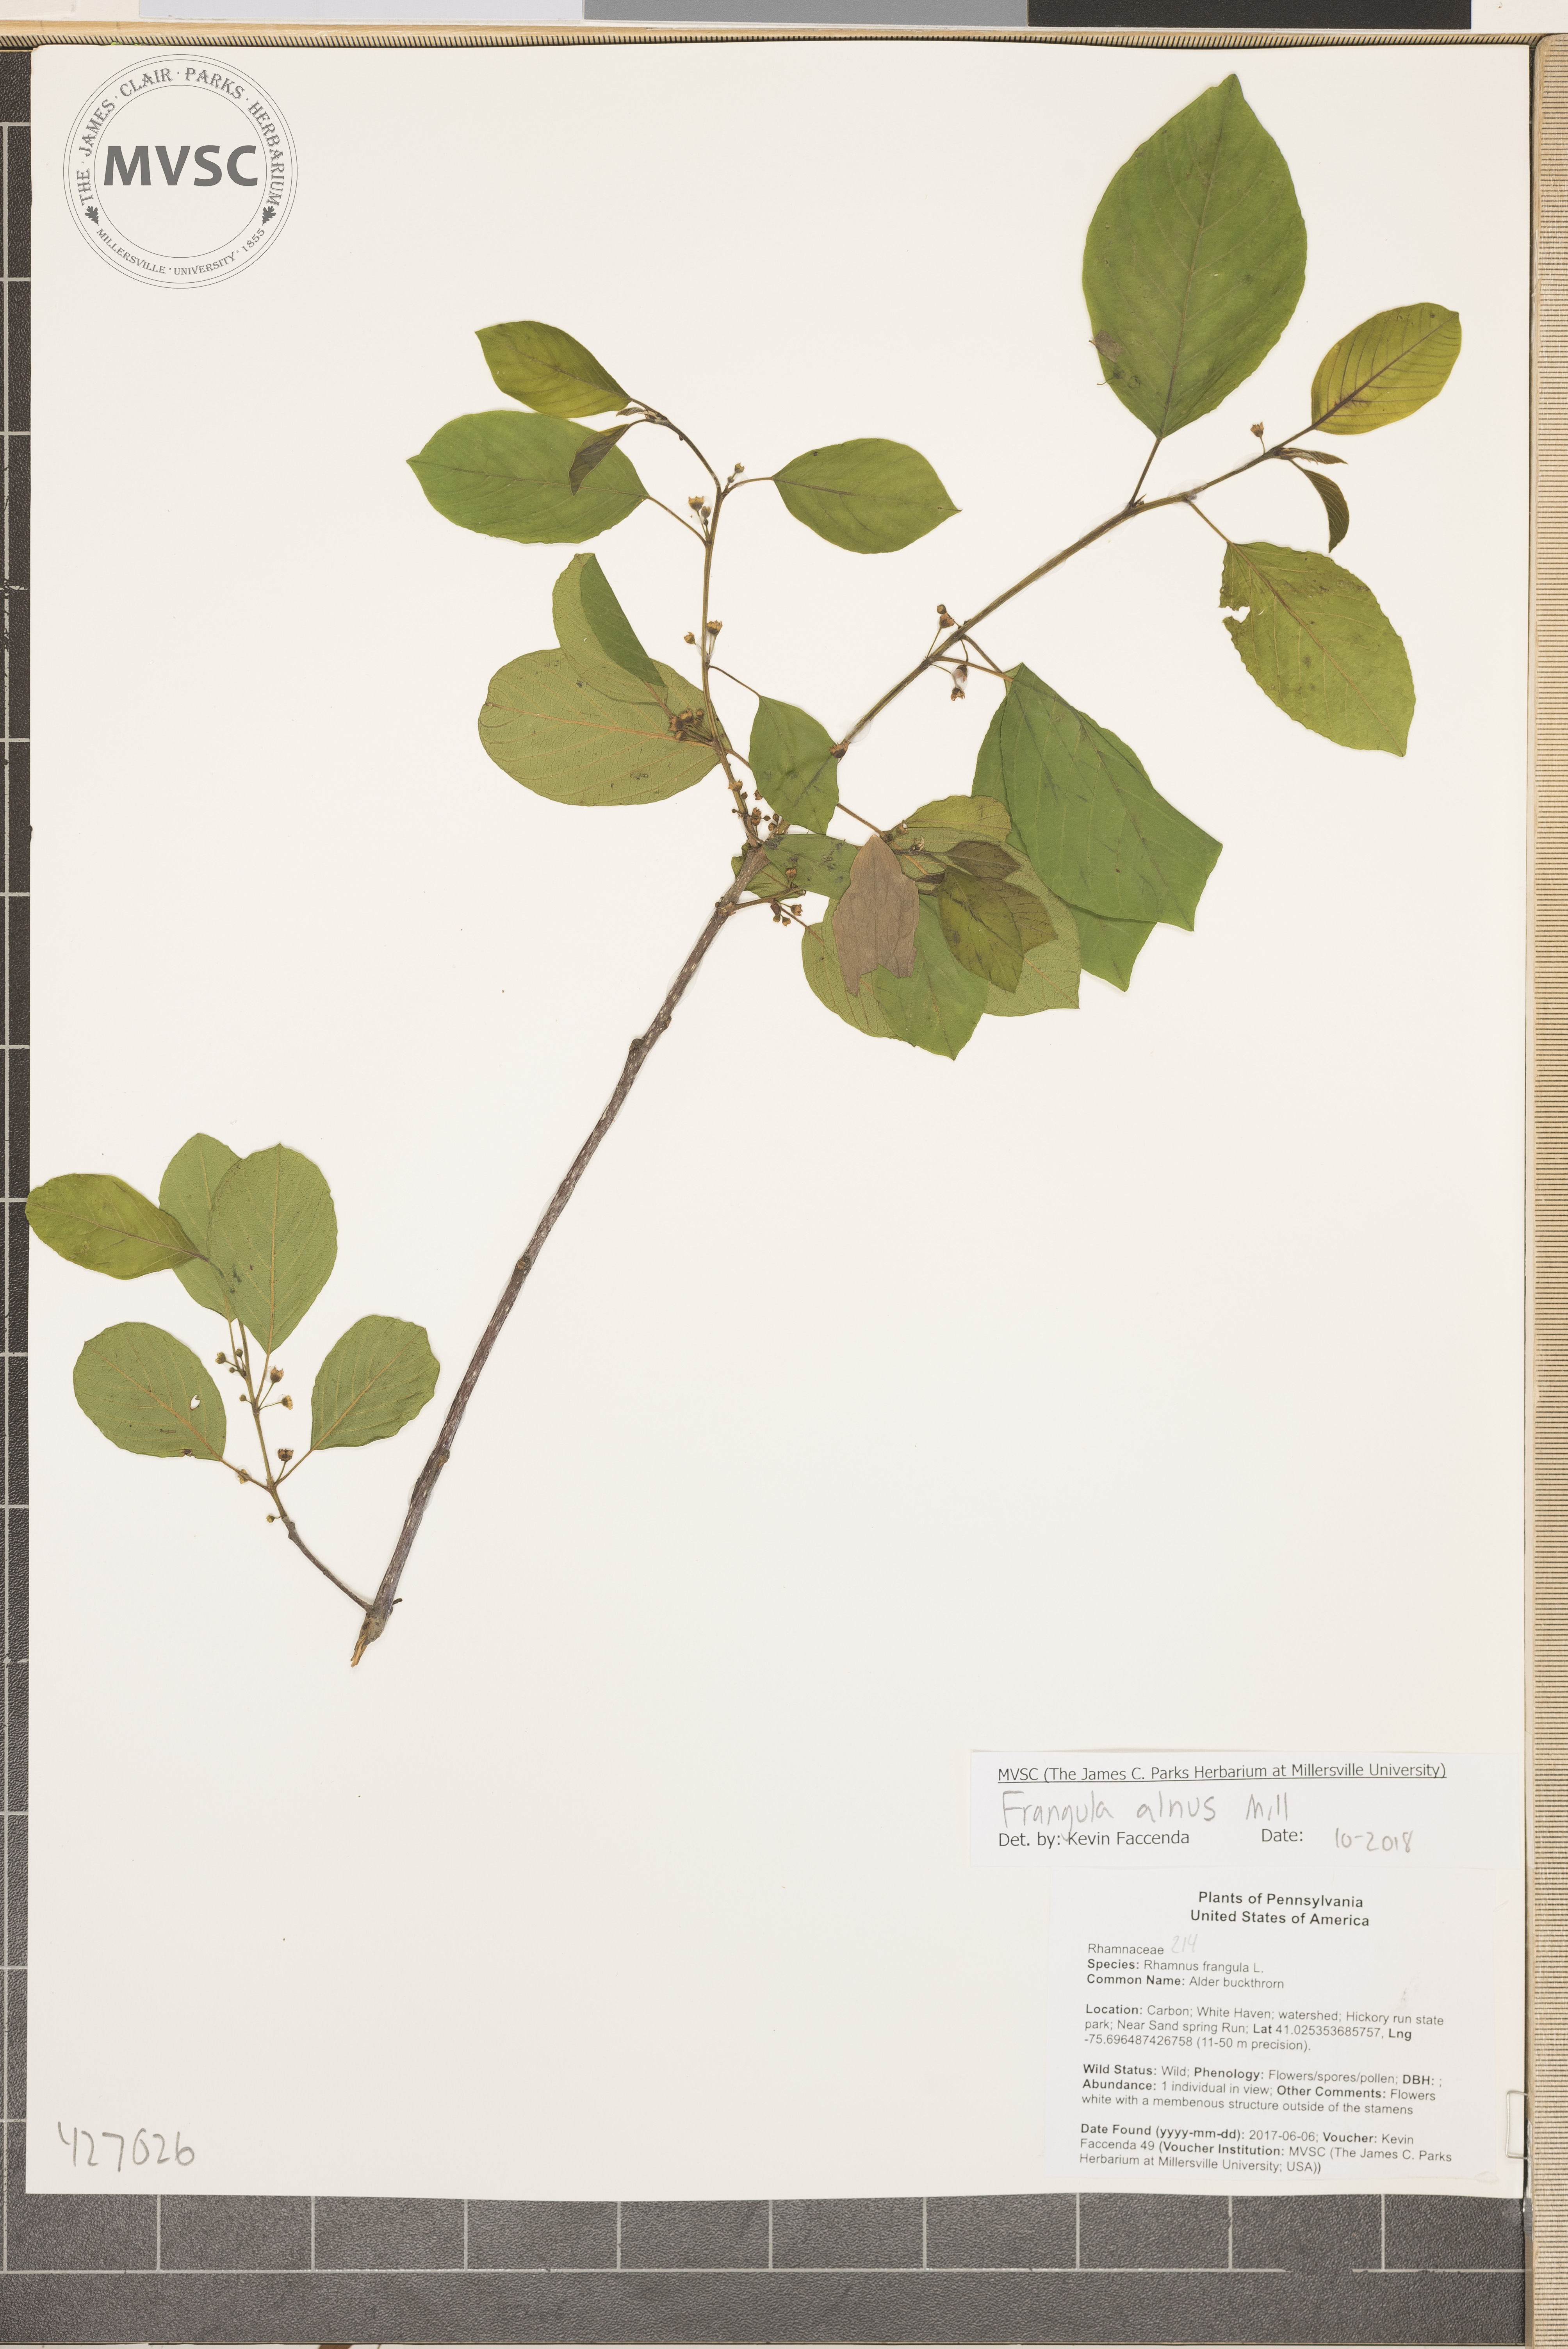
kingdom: Plantae
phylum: Tracheophyta
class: Magnoliopsida
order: Rosales
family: Rhamnaceae
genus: Frangula
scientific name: Frangula alnus
